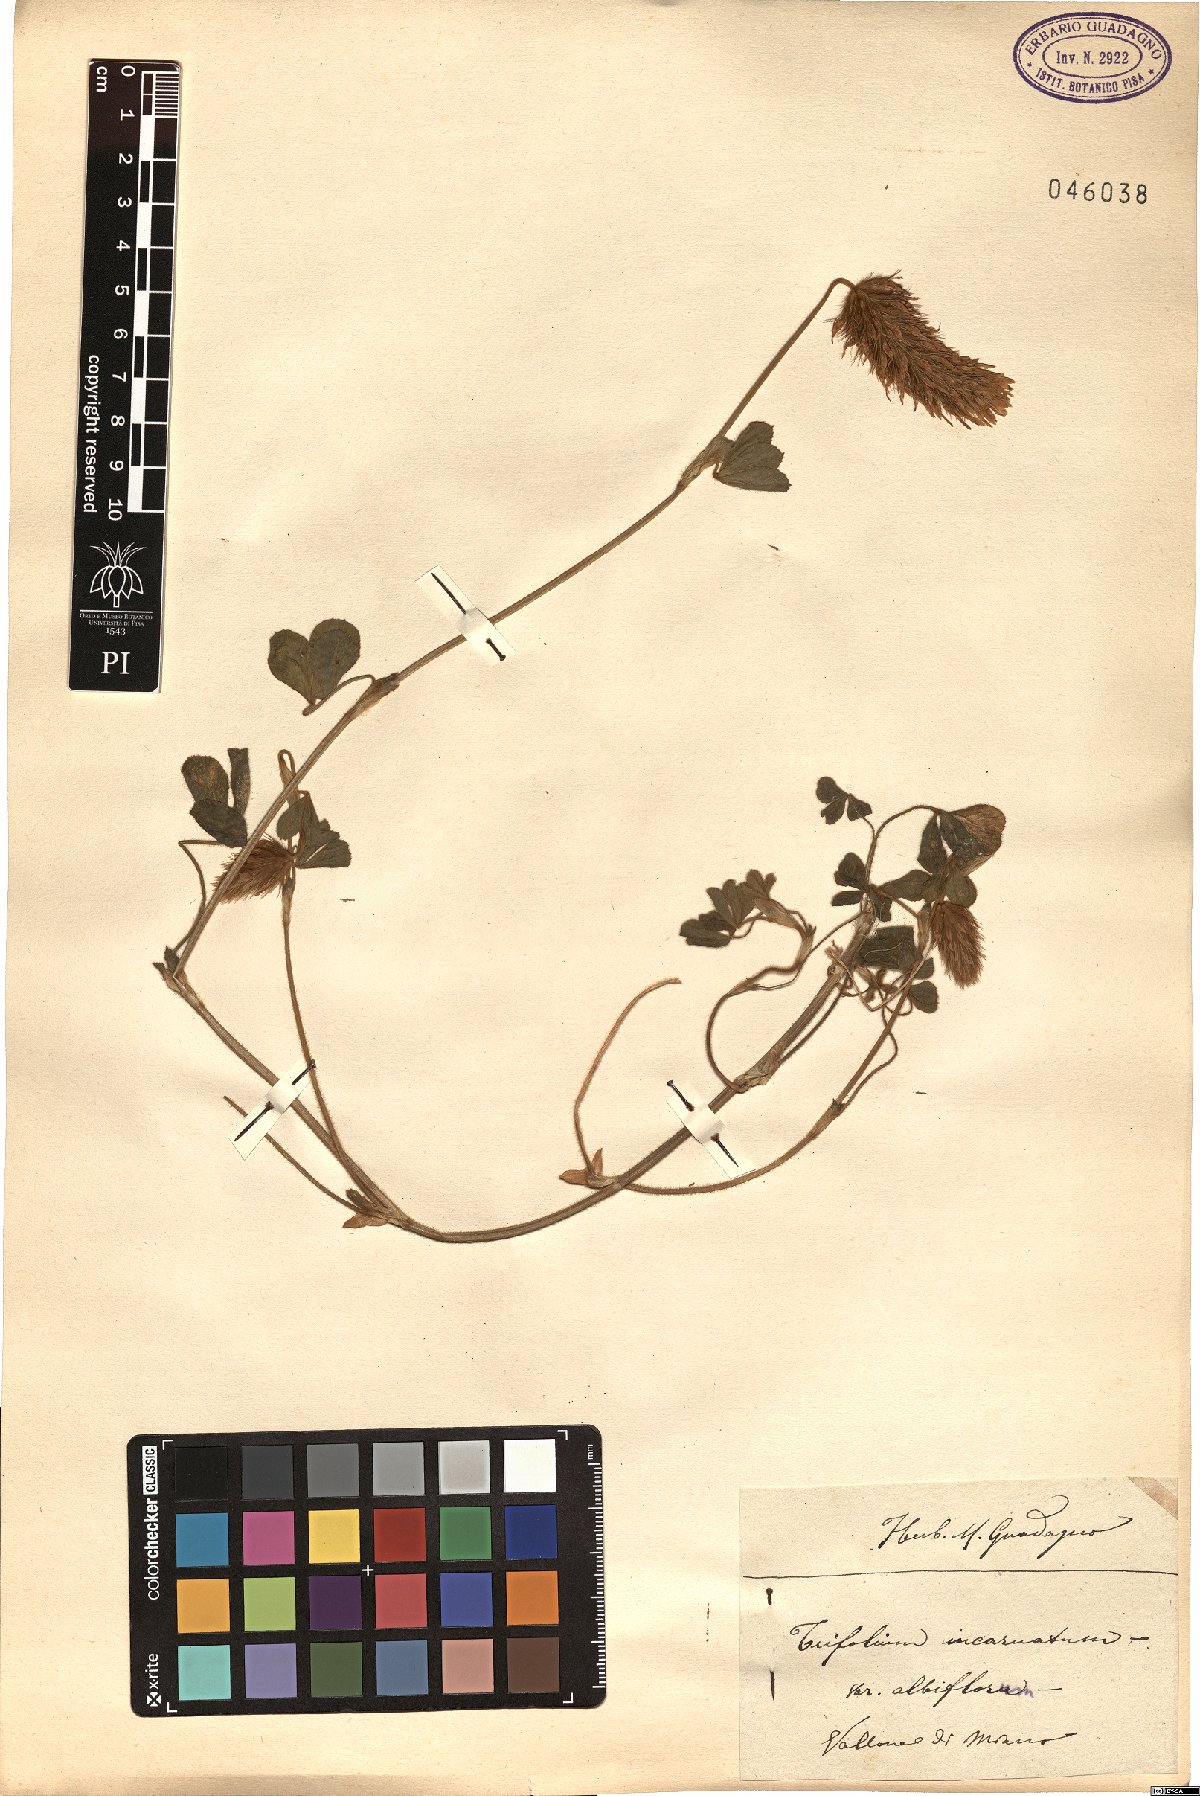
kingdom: Plantae
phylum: Tracheophyta
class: Magnoliopsida
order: Fabales
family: Fabaceae
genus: Trifolium
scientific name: Trifolium incarnatum
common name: Crimson clover
